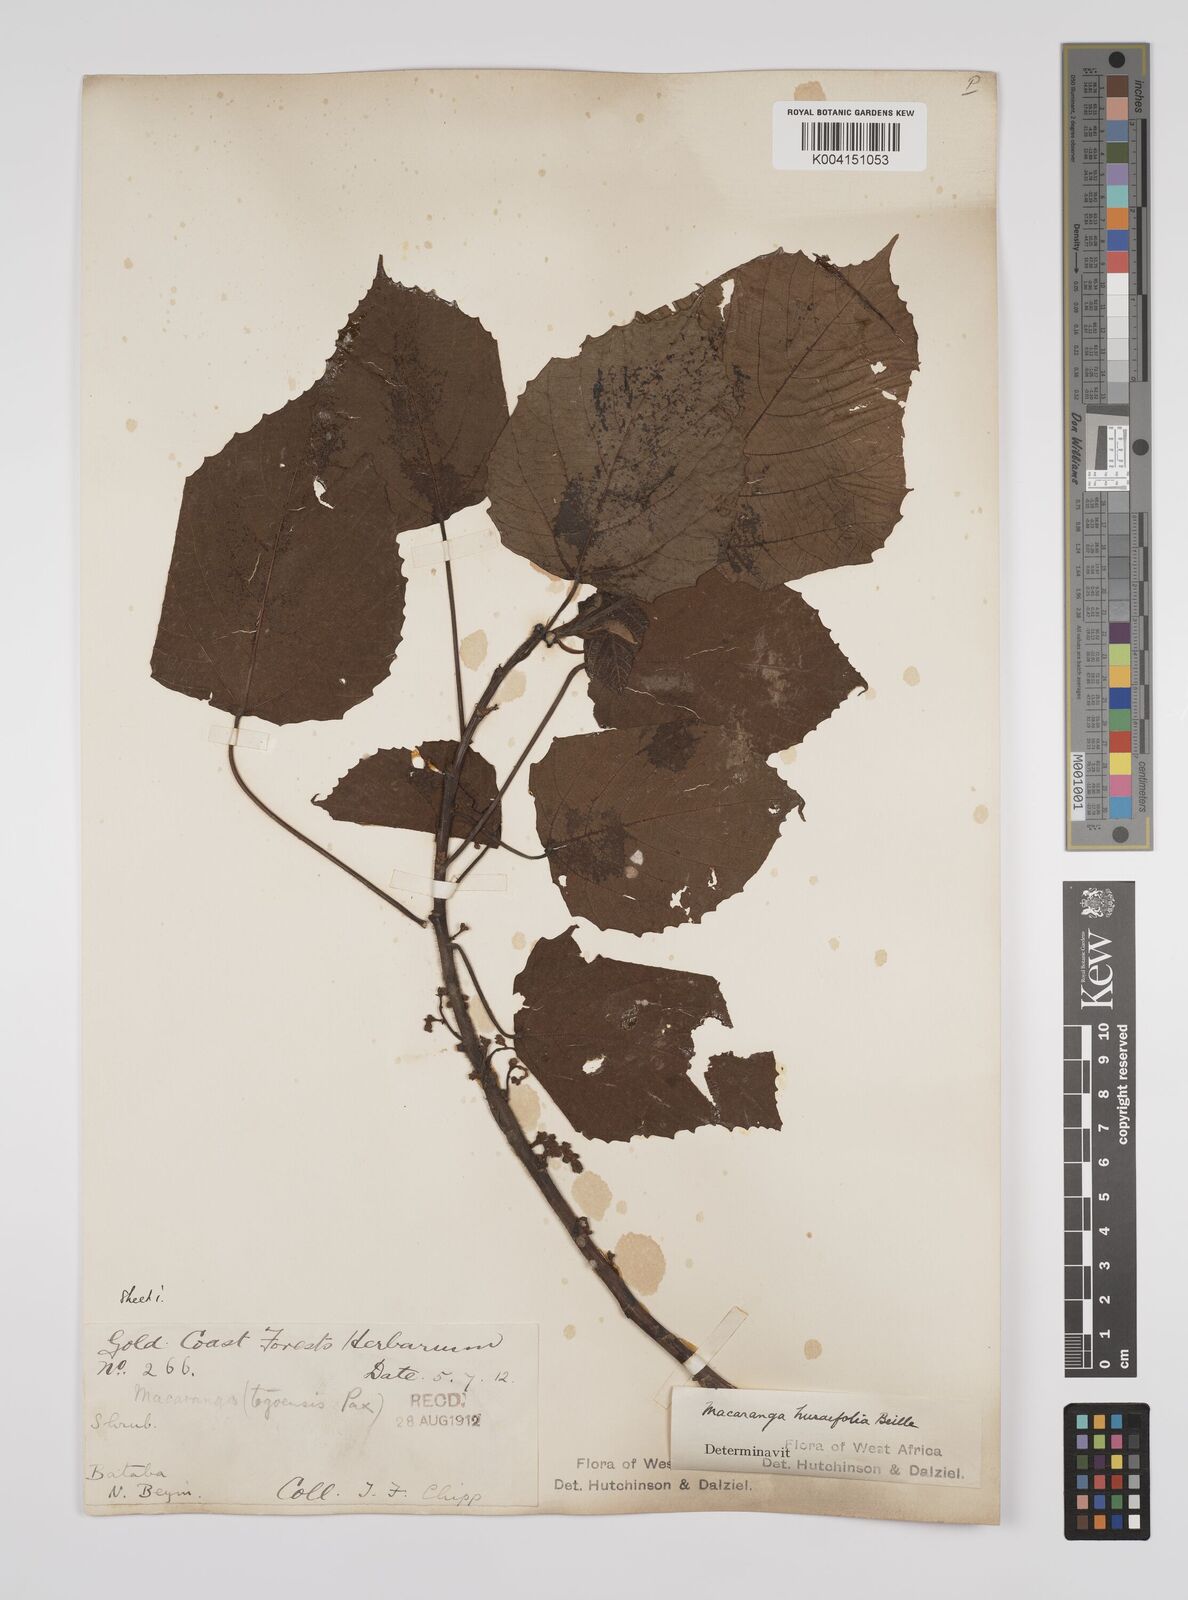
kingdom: Plantae
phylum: Tracheophyta
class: Magnoliopsida
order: Malpighiales
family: Euphorbiaceae
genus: Macaranga
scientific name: Macaranga hurifolia
